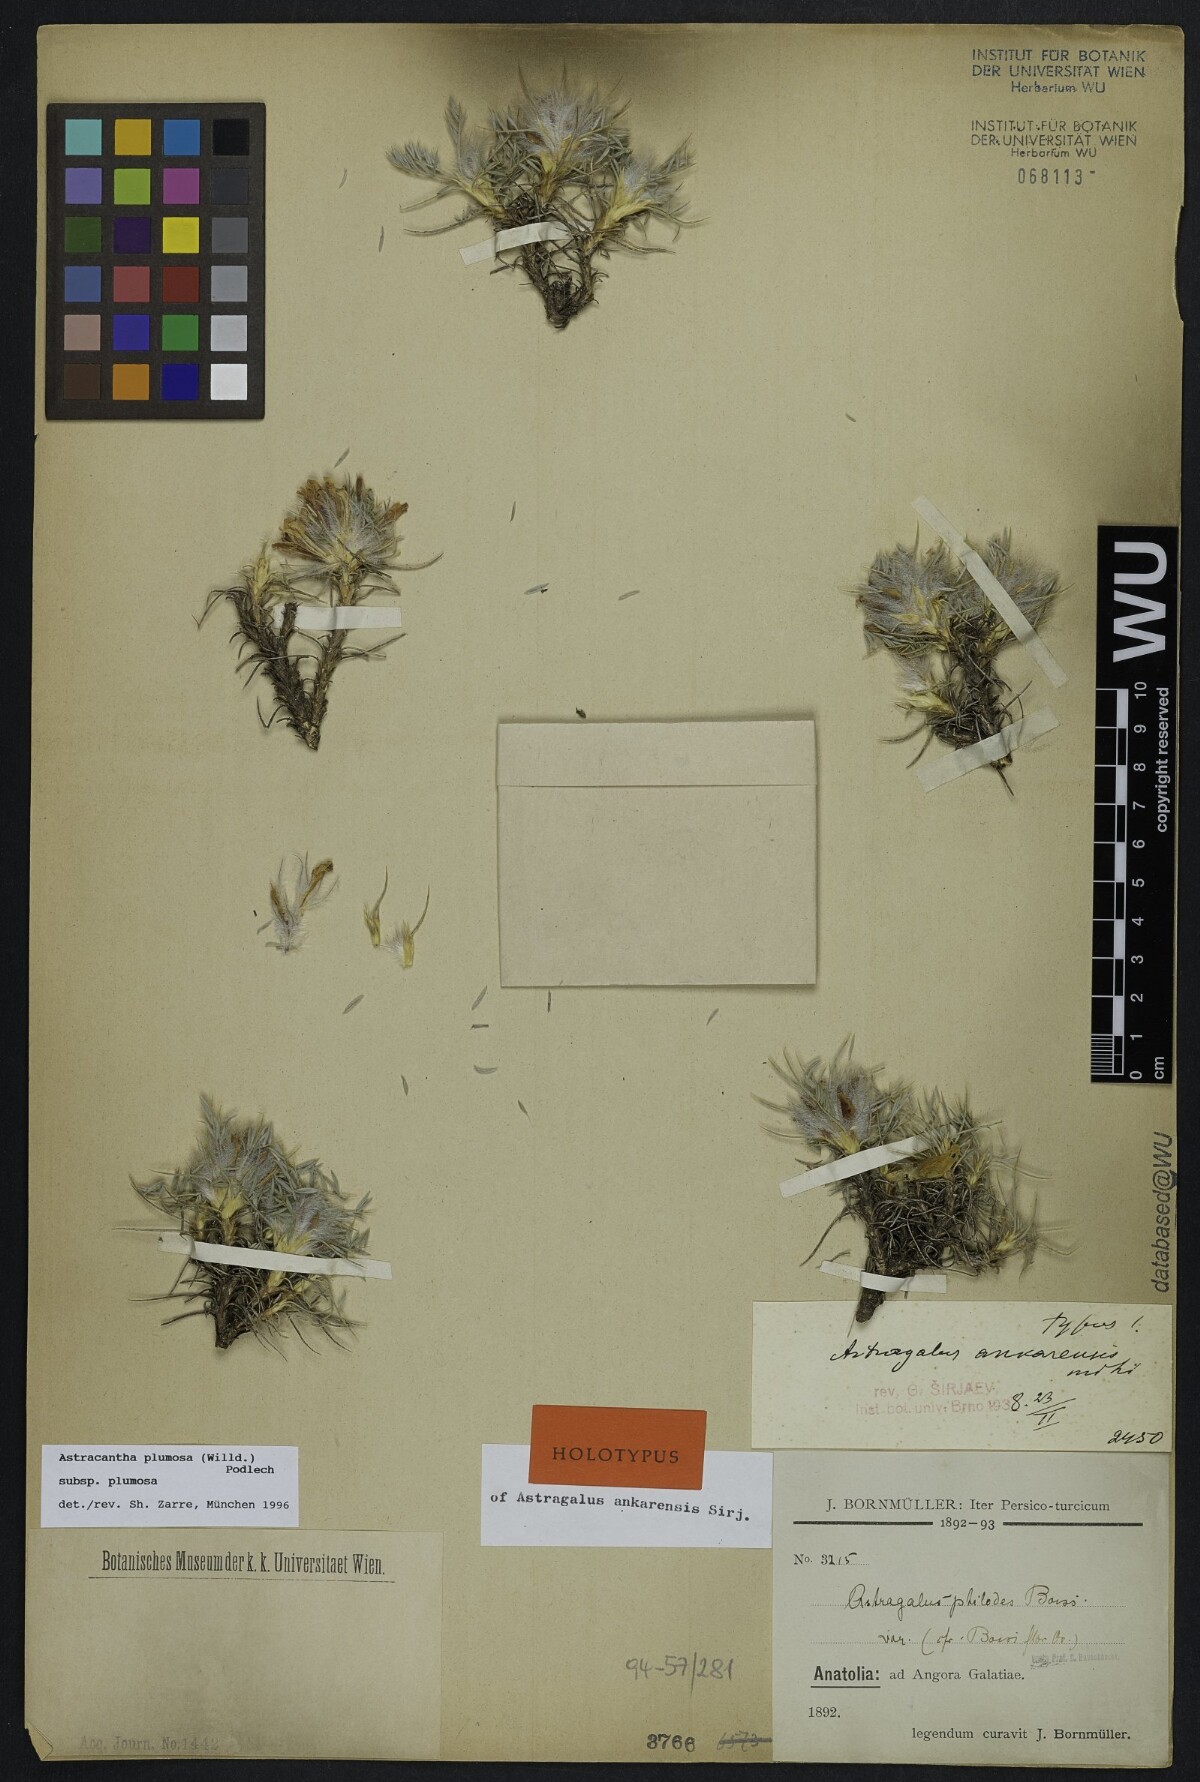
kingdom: Plantae
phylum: Tracheophyta
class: Magnoliopsida
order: Fabales
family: Fabaceae
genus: Astragalus
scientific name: Astragalus condensatus
